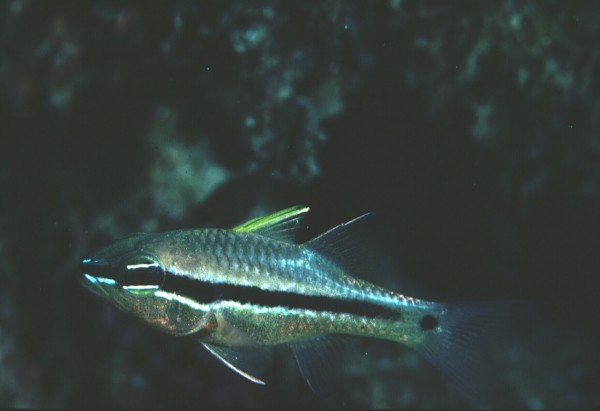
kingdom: Animalia
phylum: Chordata
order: Perciformes
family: Apogonidae
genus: Pristiapogon
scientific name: Pristiapogon fraenatus
